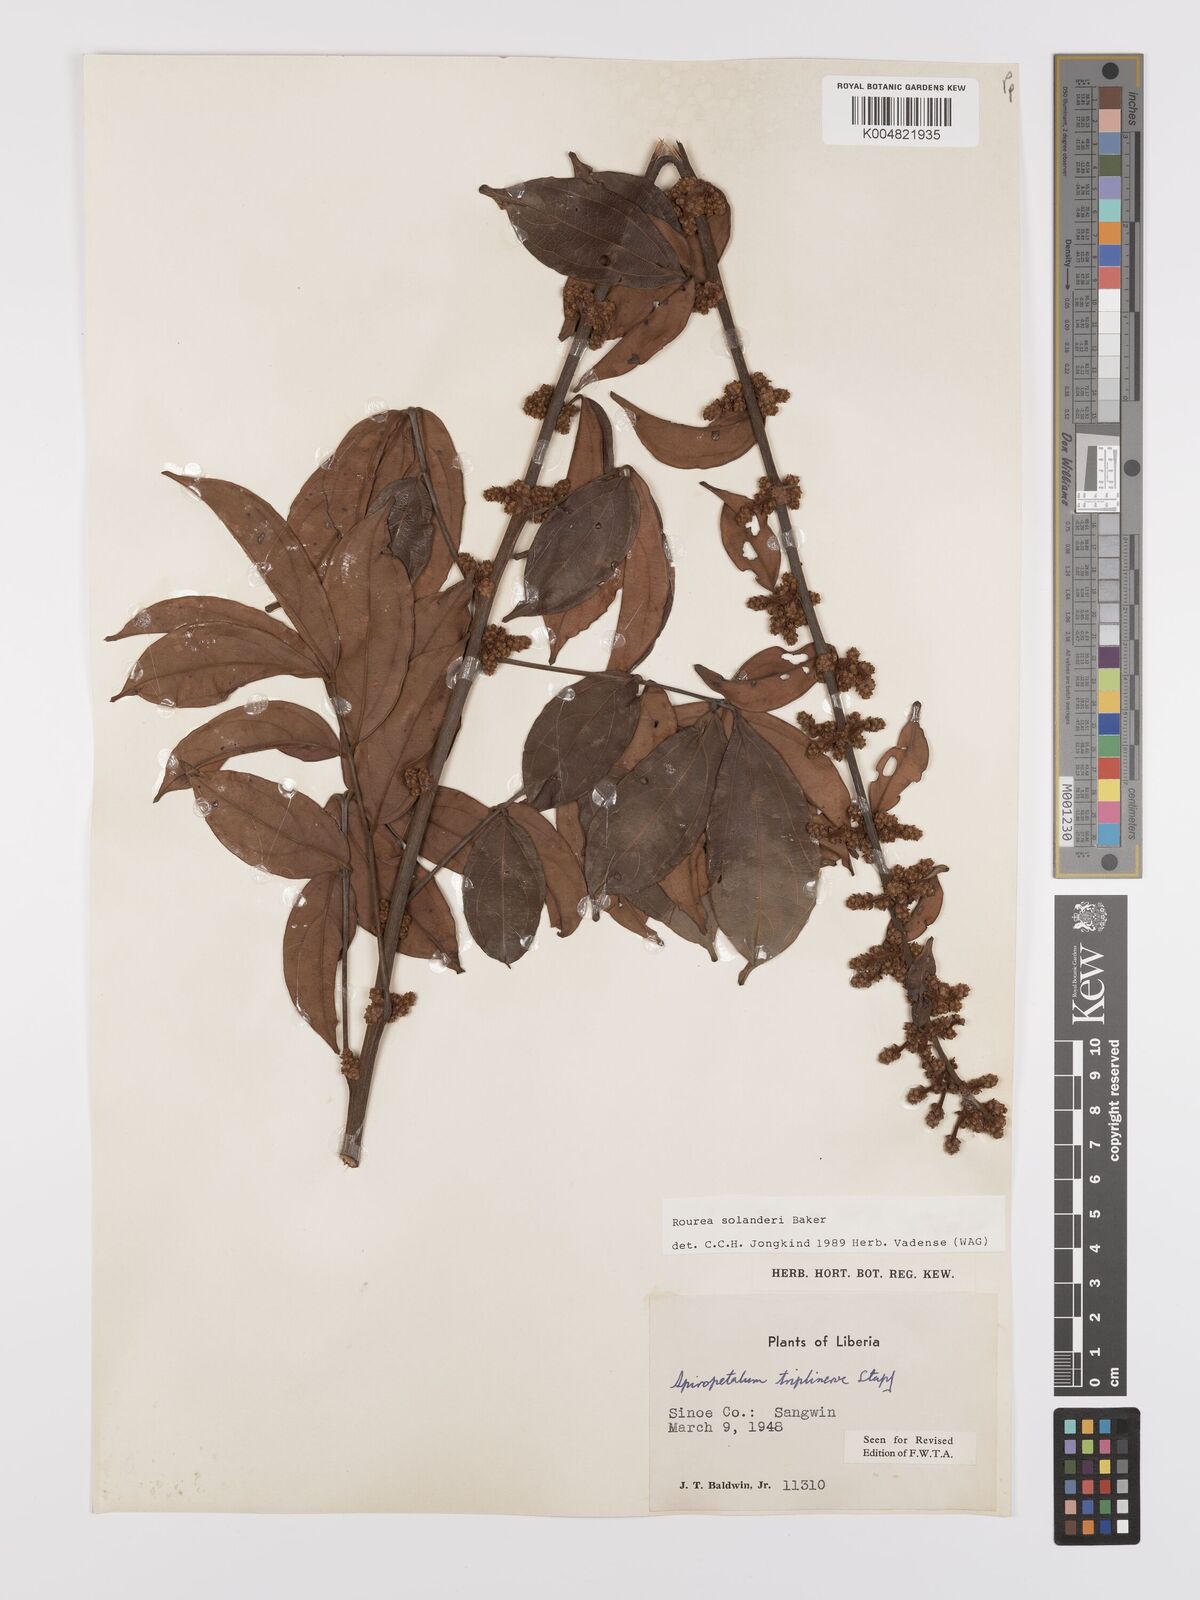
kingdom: Plantae
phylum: Tracheophyta
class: Magnoliopsida
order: Oxalidales
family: Connaraceae
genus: Rourea
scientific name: Rourea solanderi
